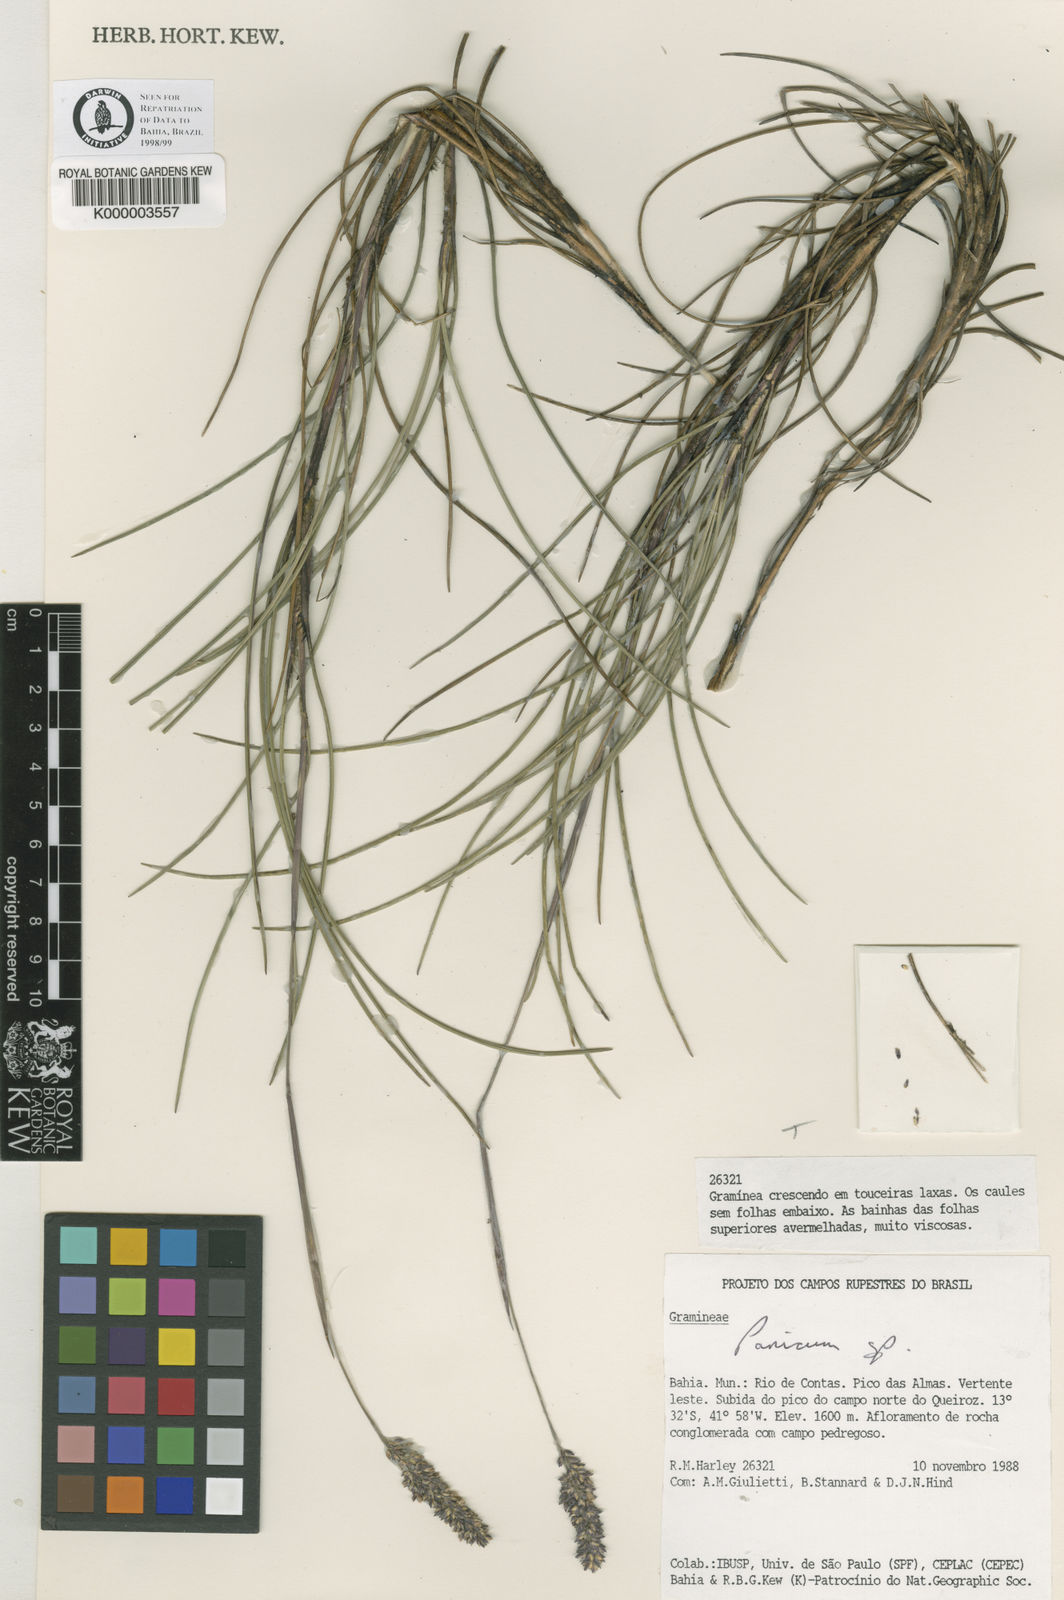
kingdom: Plantae
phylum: Tracheophyta
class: Liliopsida
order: Poales
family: Poaceae
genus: Renvoizea
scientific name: Renvoizea acicularifolia
